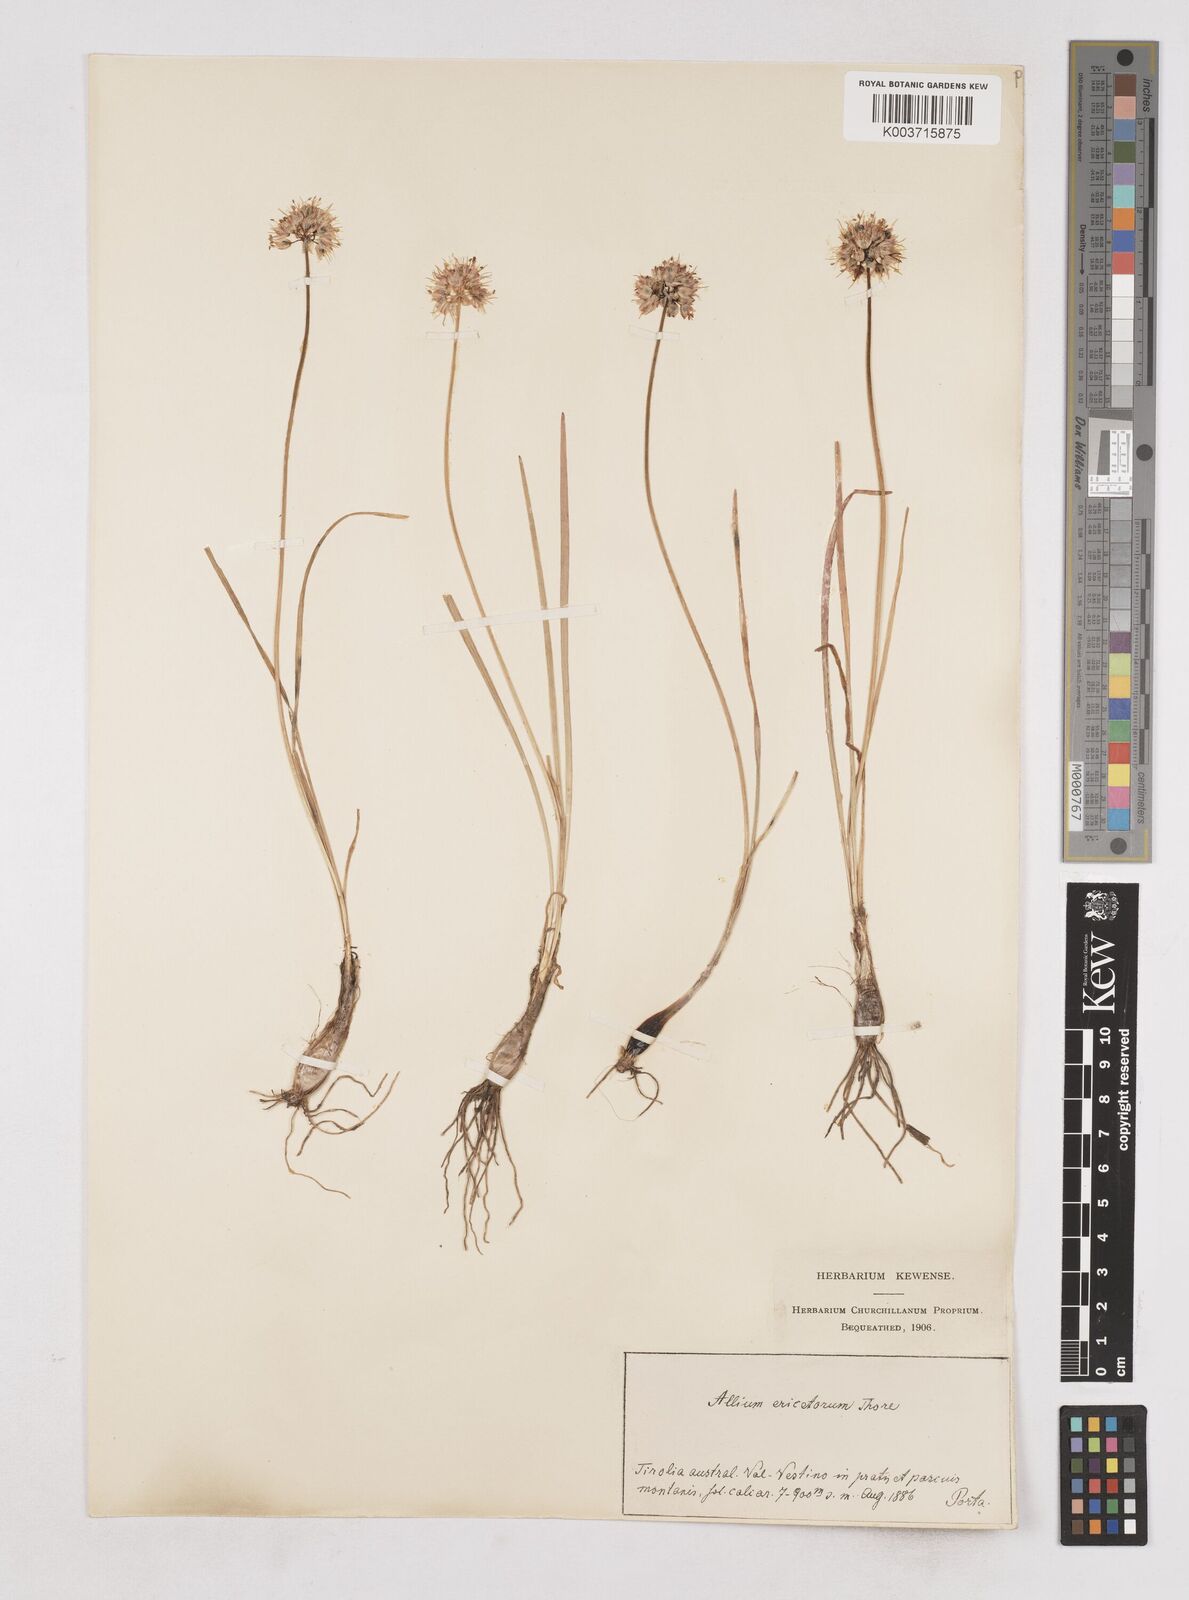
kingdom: Plantae
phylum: Tracheophyta
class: Liliopsida
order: Asparagales
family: Amaryllidaceae
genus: Allium
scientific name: Allium ericetorum
